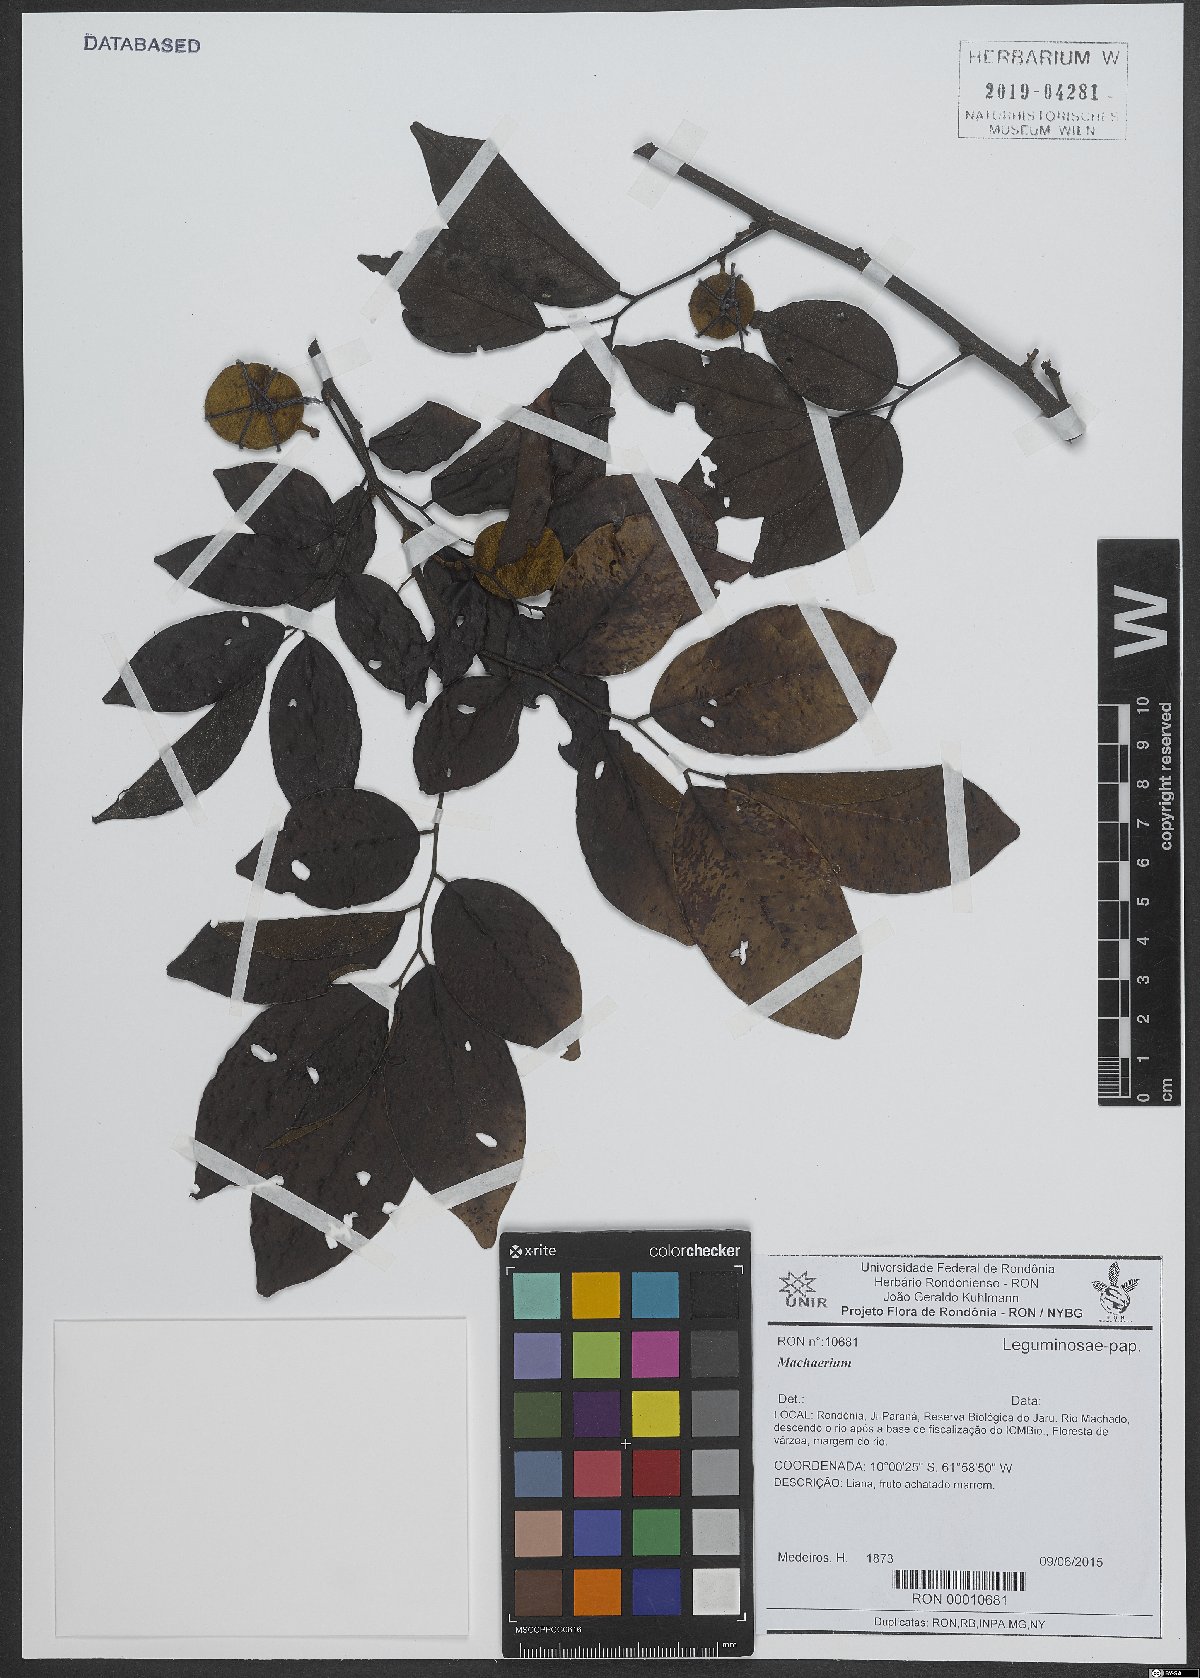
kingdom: Plantae
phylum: Tracheophyta
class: Magnoliopsida
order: Fabales
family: Fabaceae
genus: Machaerium
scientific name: Machaerium
